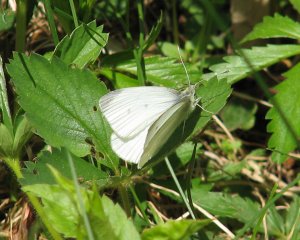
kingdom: Animalia
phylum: Arthropoda
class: Insecta
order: Lepidoptera
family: Pieridae
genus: Pieris
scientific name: Pieris rapae
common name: Cabbage White
